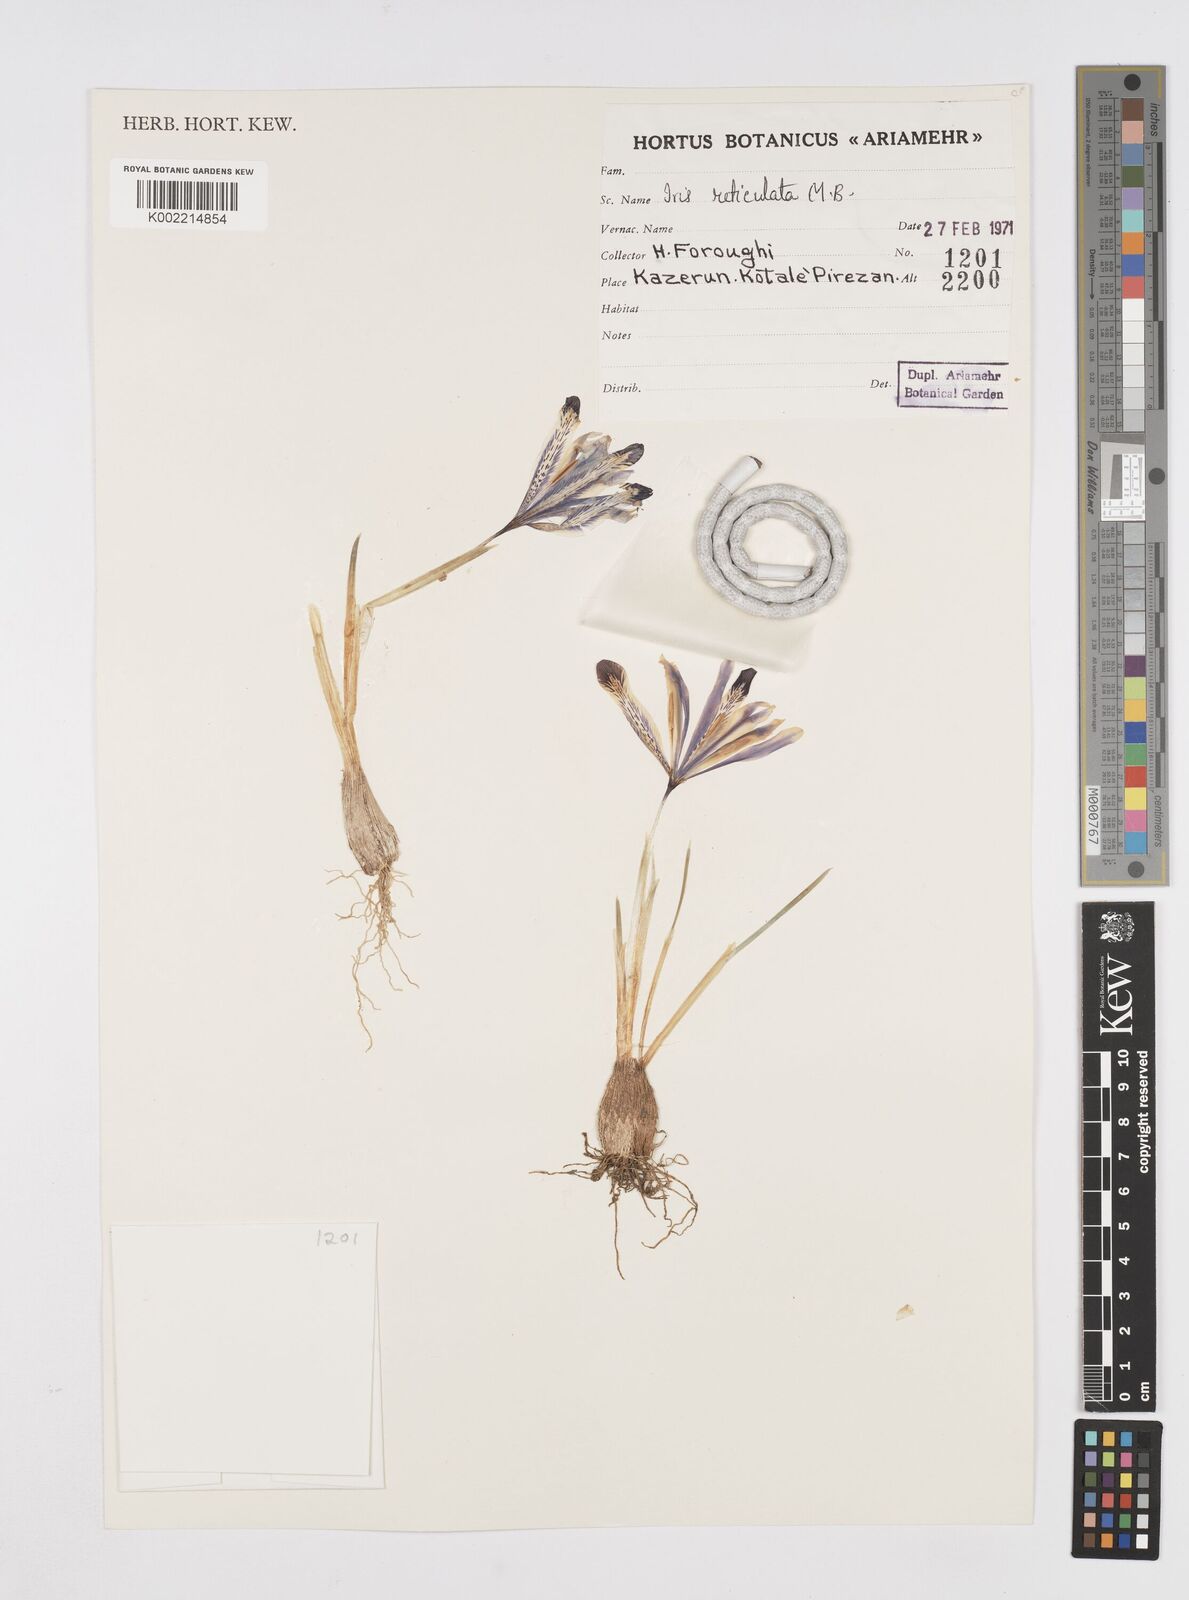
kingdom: Plantae
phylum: Tracheophyta
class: Liliopsida
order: Asparagales
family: Iridaceae
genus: Iris
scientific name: Iris reticulata
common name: Netted iris
